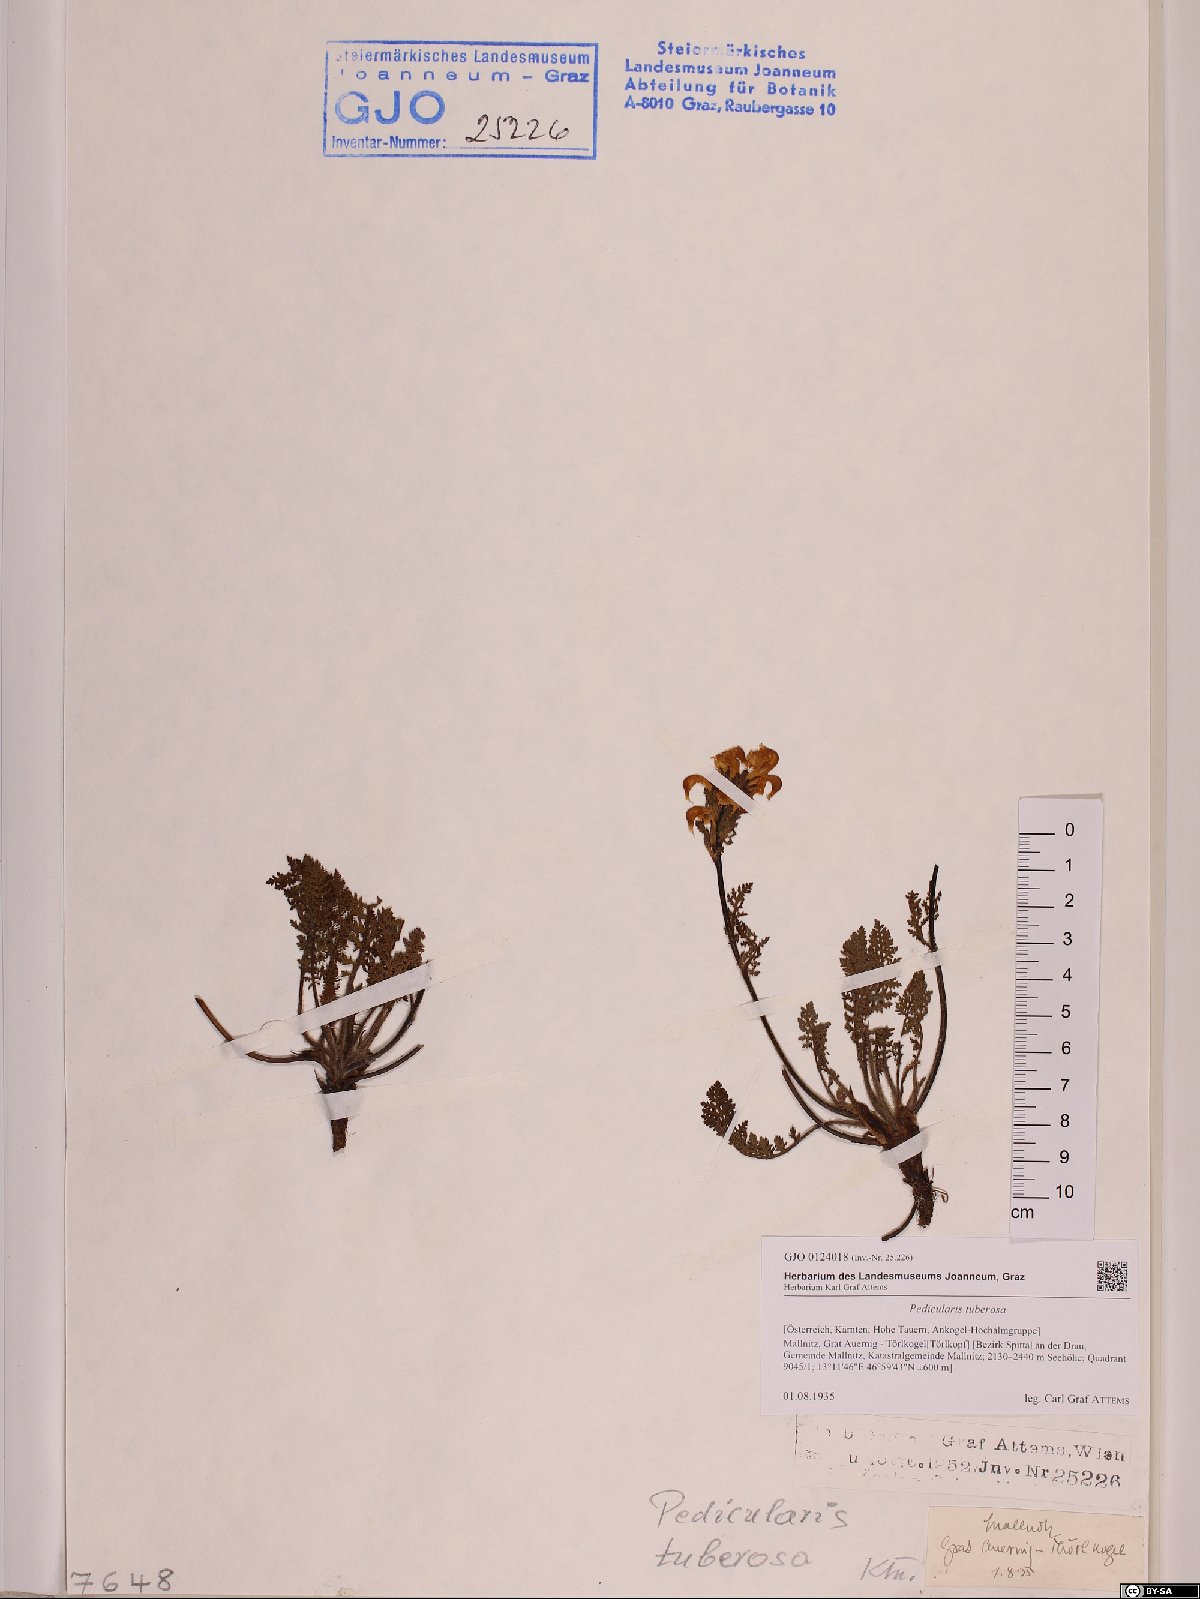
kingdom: Plantae
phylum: Tracheophyta
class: Magnoliopsida
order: Lamiales
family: Orobanchaceae
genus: Pedicularis
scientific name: Pedicularis tuberosa
